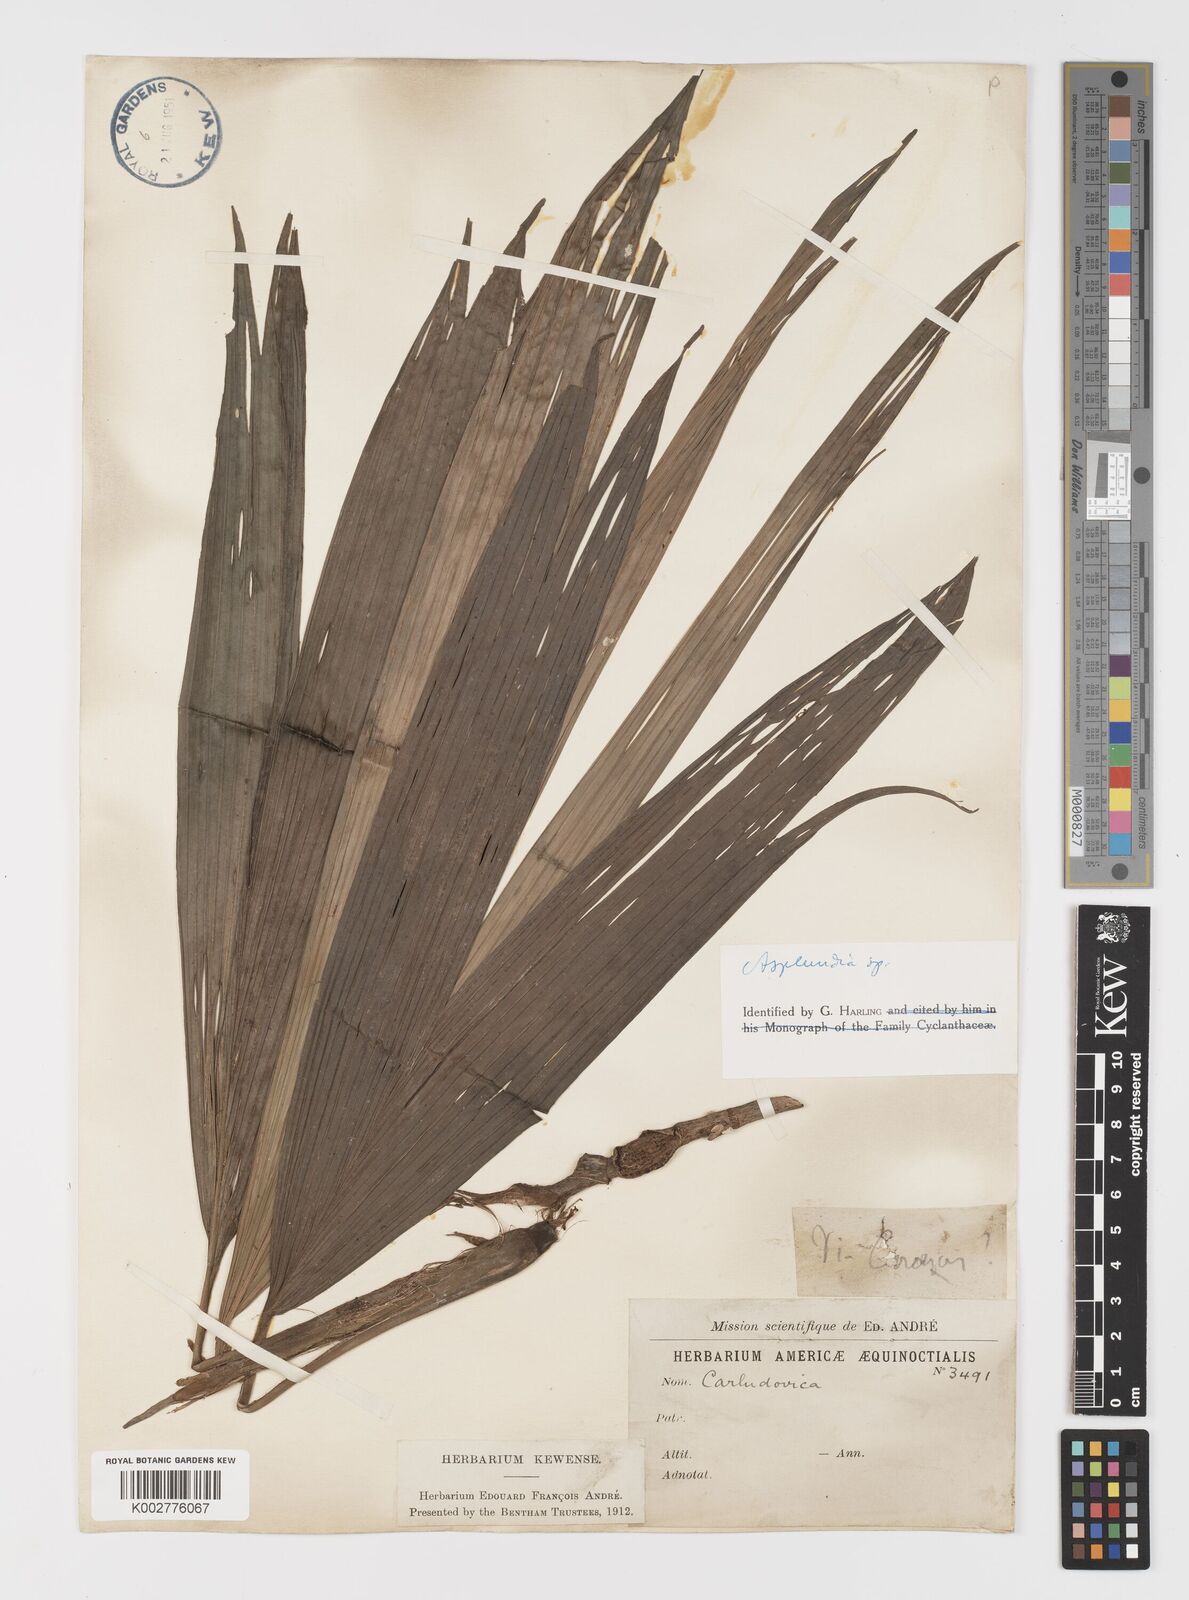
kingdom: Plantae
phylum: Tracheophyta
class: Liliopsida
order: Pandanales
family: Cyclanthaceae
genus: Asplundia
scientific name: Asplundia
